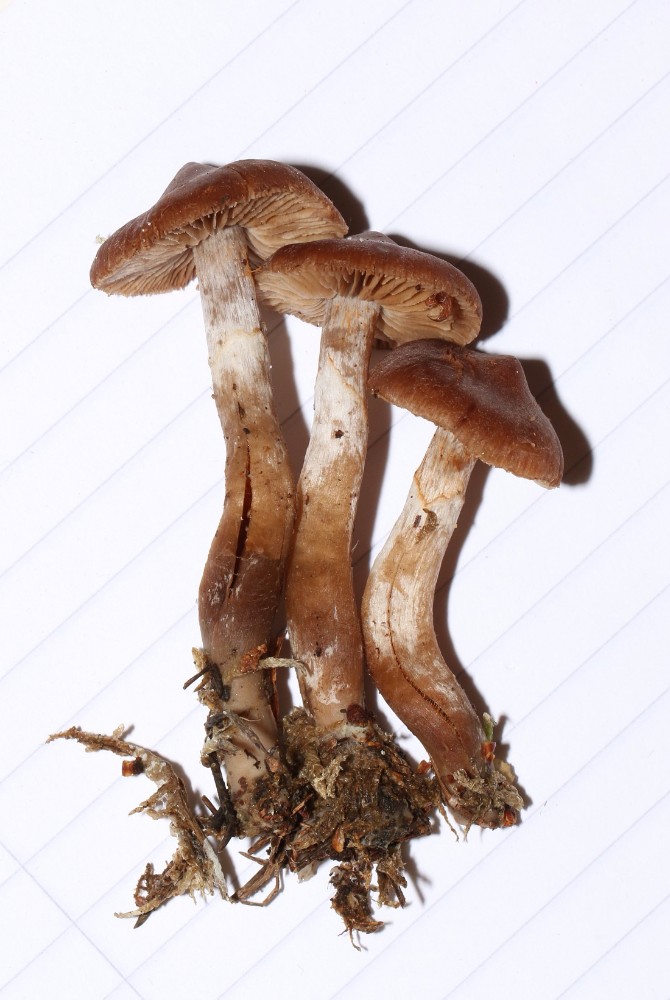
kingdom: Fungi
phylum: Basidiomycota
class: Agaricomycetes
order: Agaricales
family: Cortinariaceae
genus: Cortinarius
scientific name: Cortinarius
